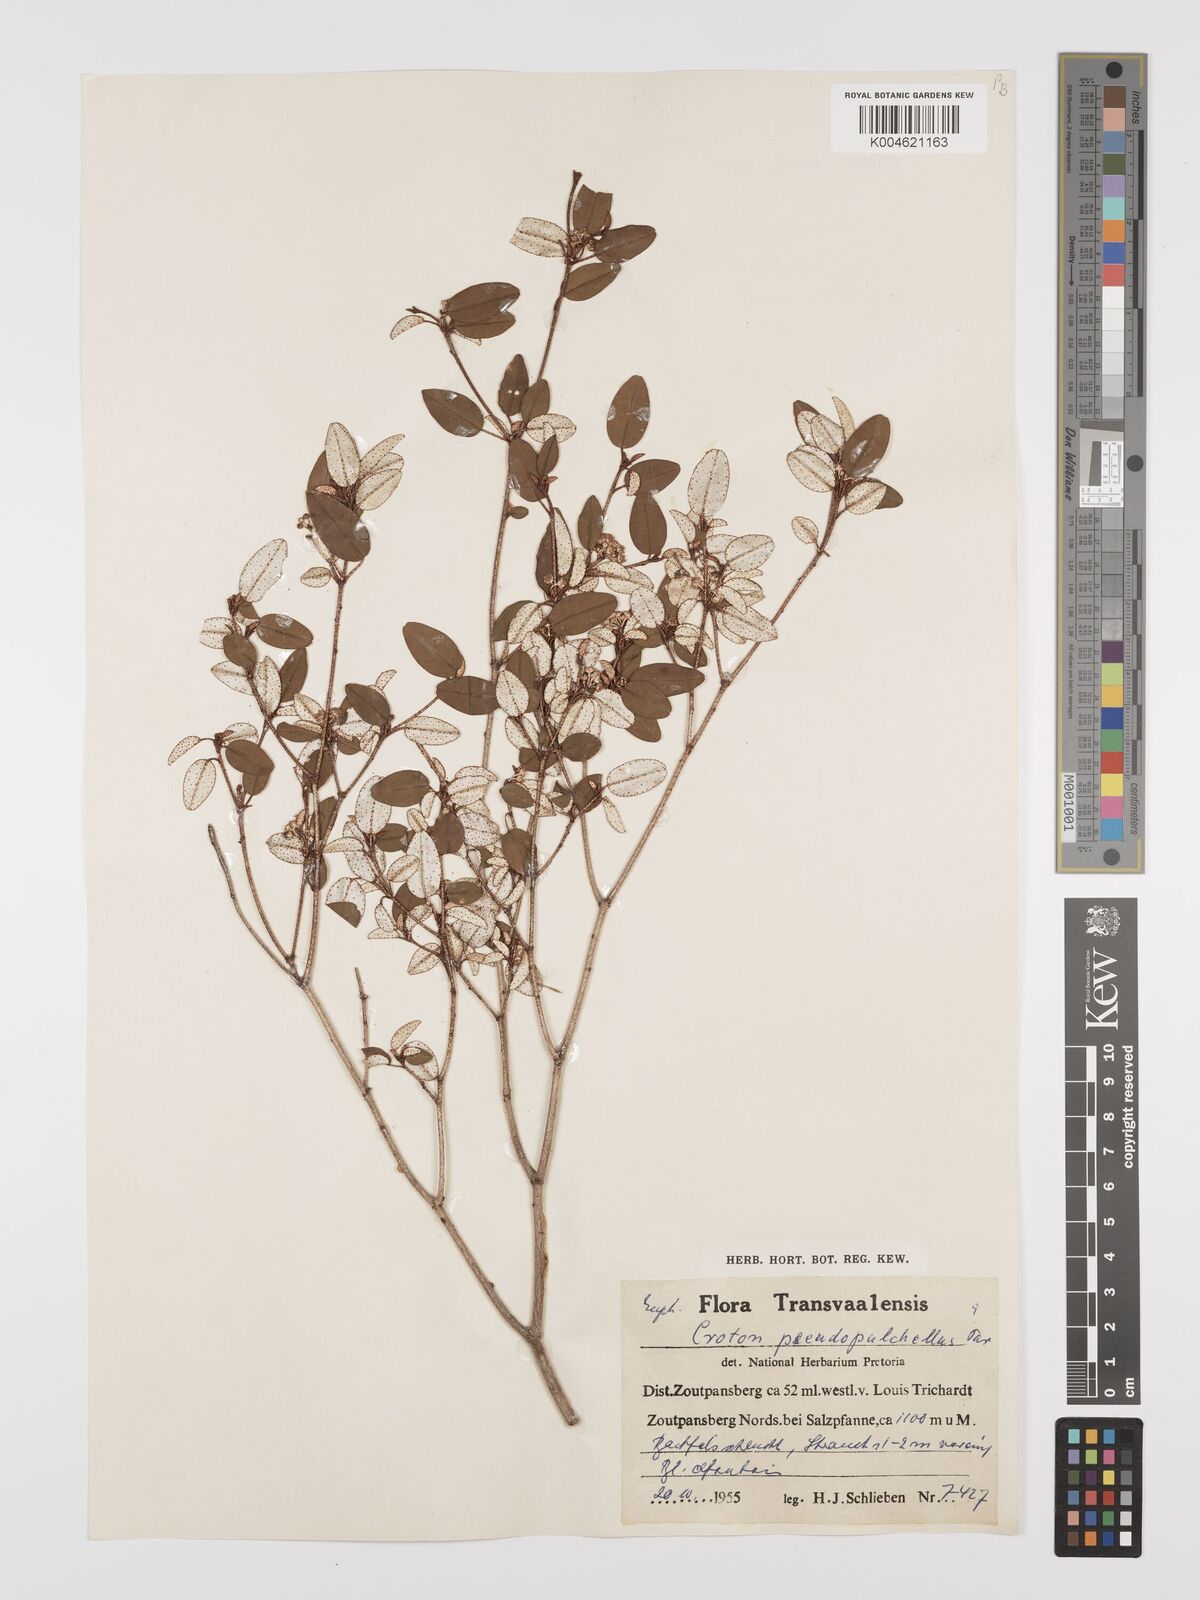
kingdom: Plantae
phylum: Tracheophyta
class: Magnoliopsida
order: Malpighiales
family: Euphorbiaceae
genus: Croton
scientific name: Croton pseudopulchellus
